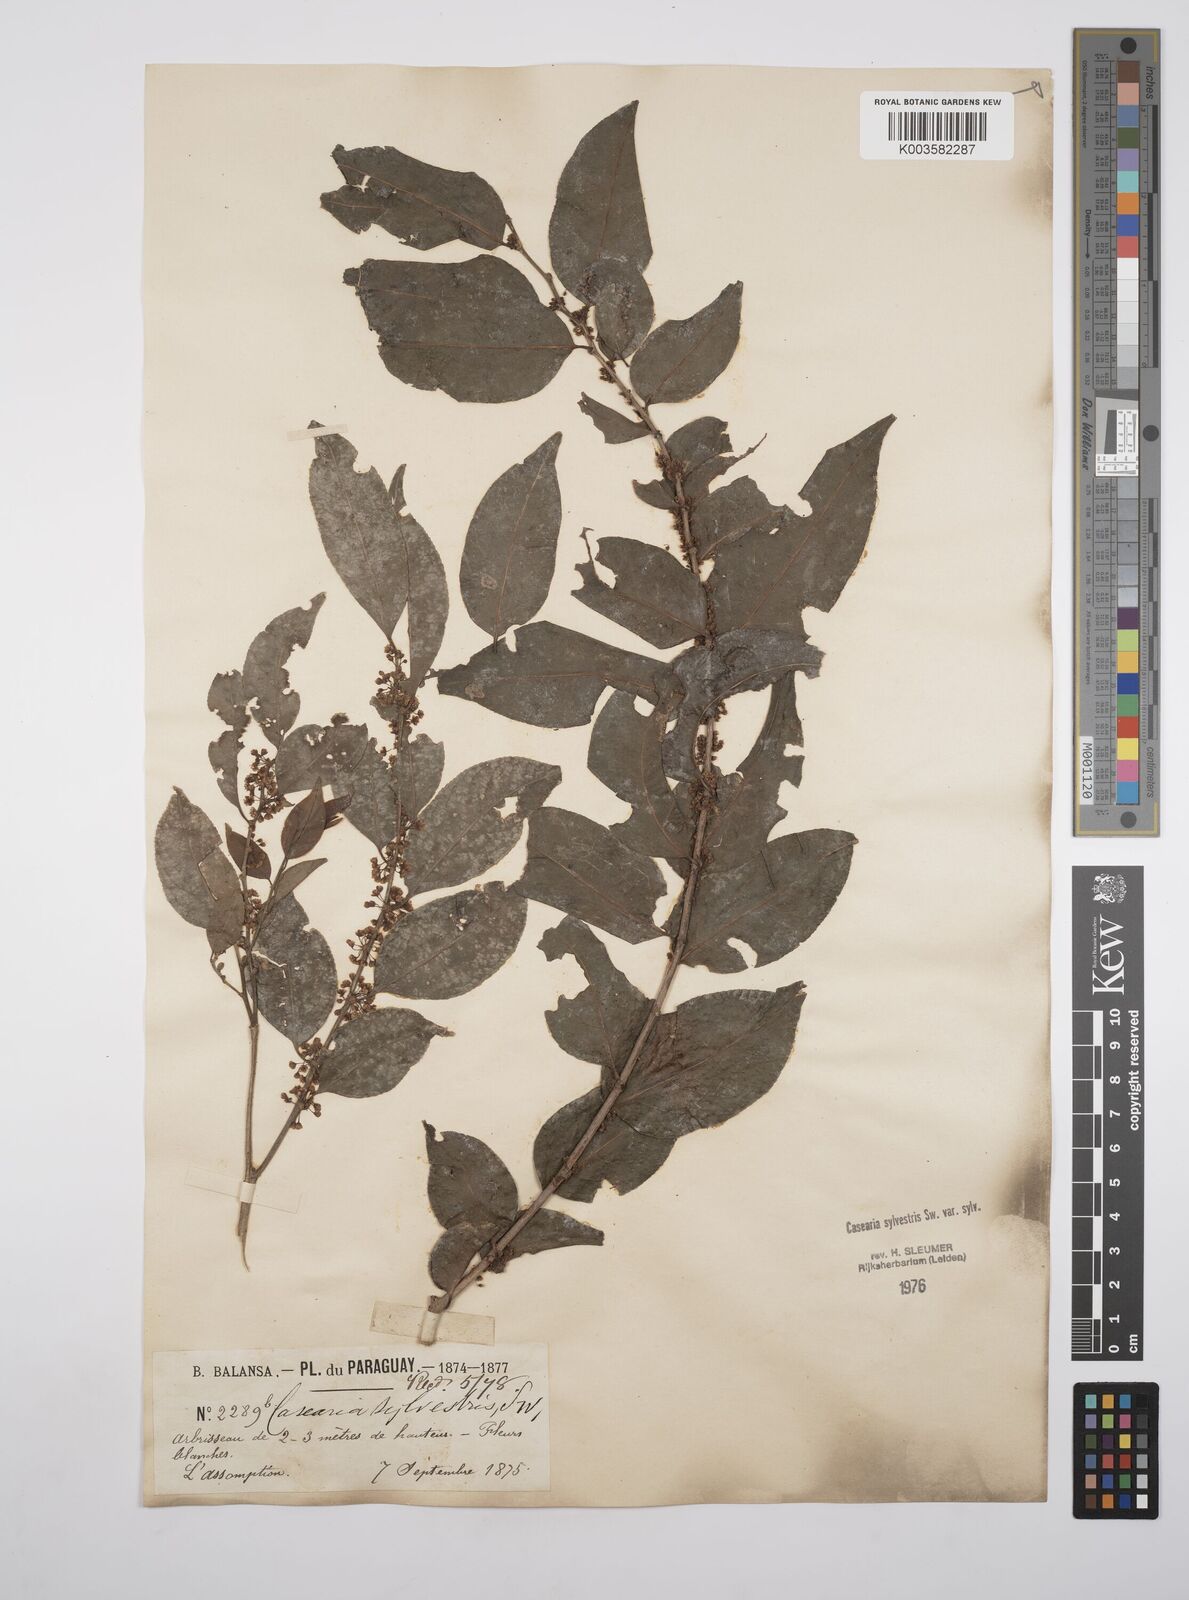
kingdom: Plantae
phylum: Tracheophyta
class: Magnoliopsida
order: Malpighiales
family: Salicaceae
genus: Casearia
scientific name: Casearia sylvestris
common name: Wild sage
